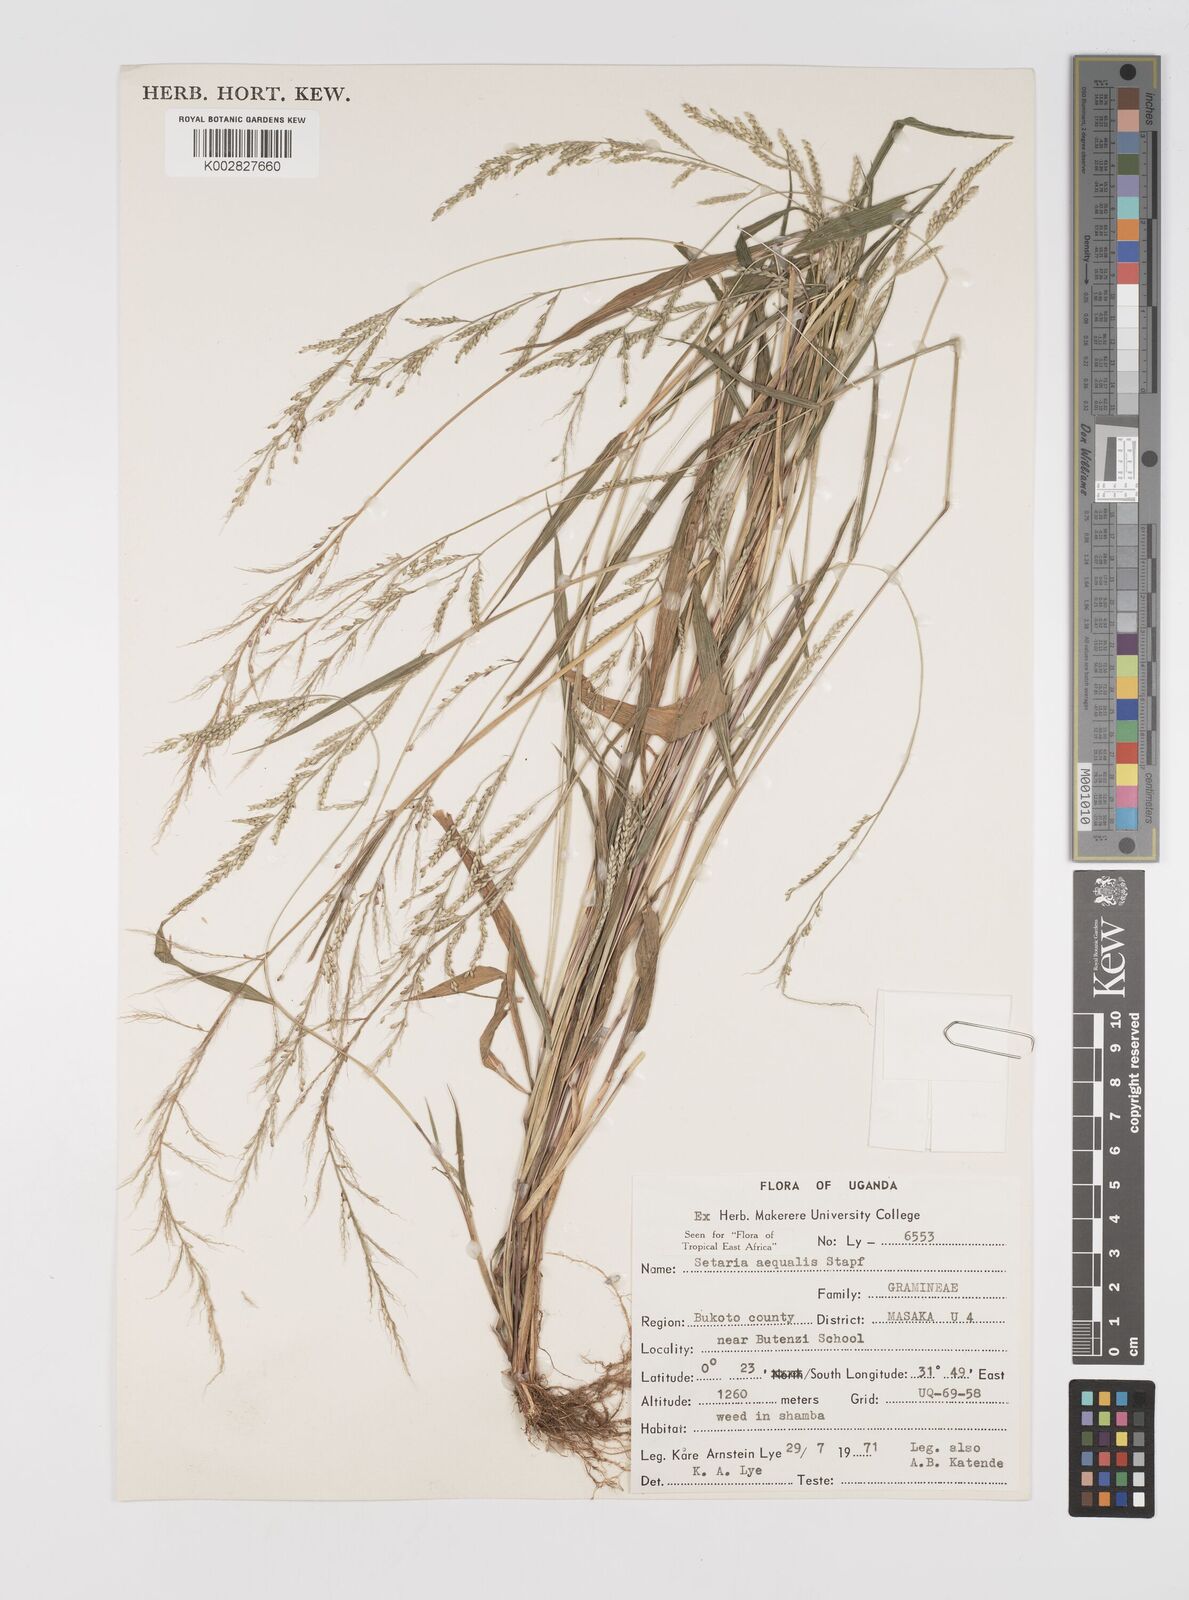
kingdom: Plantae
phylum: Tracheophyta
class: Liliopsida
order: Poales
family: Poaceae
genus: Setaria
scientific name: Setaria homonyma
